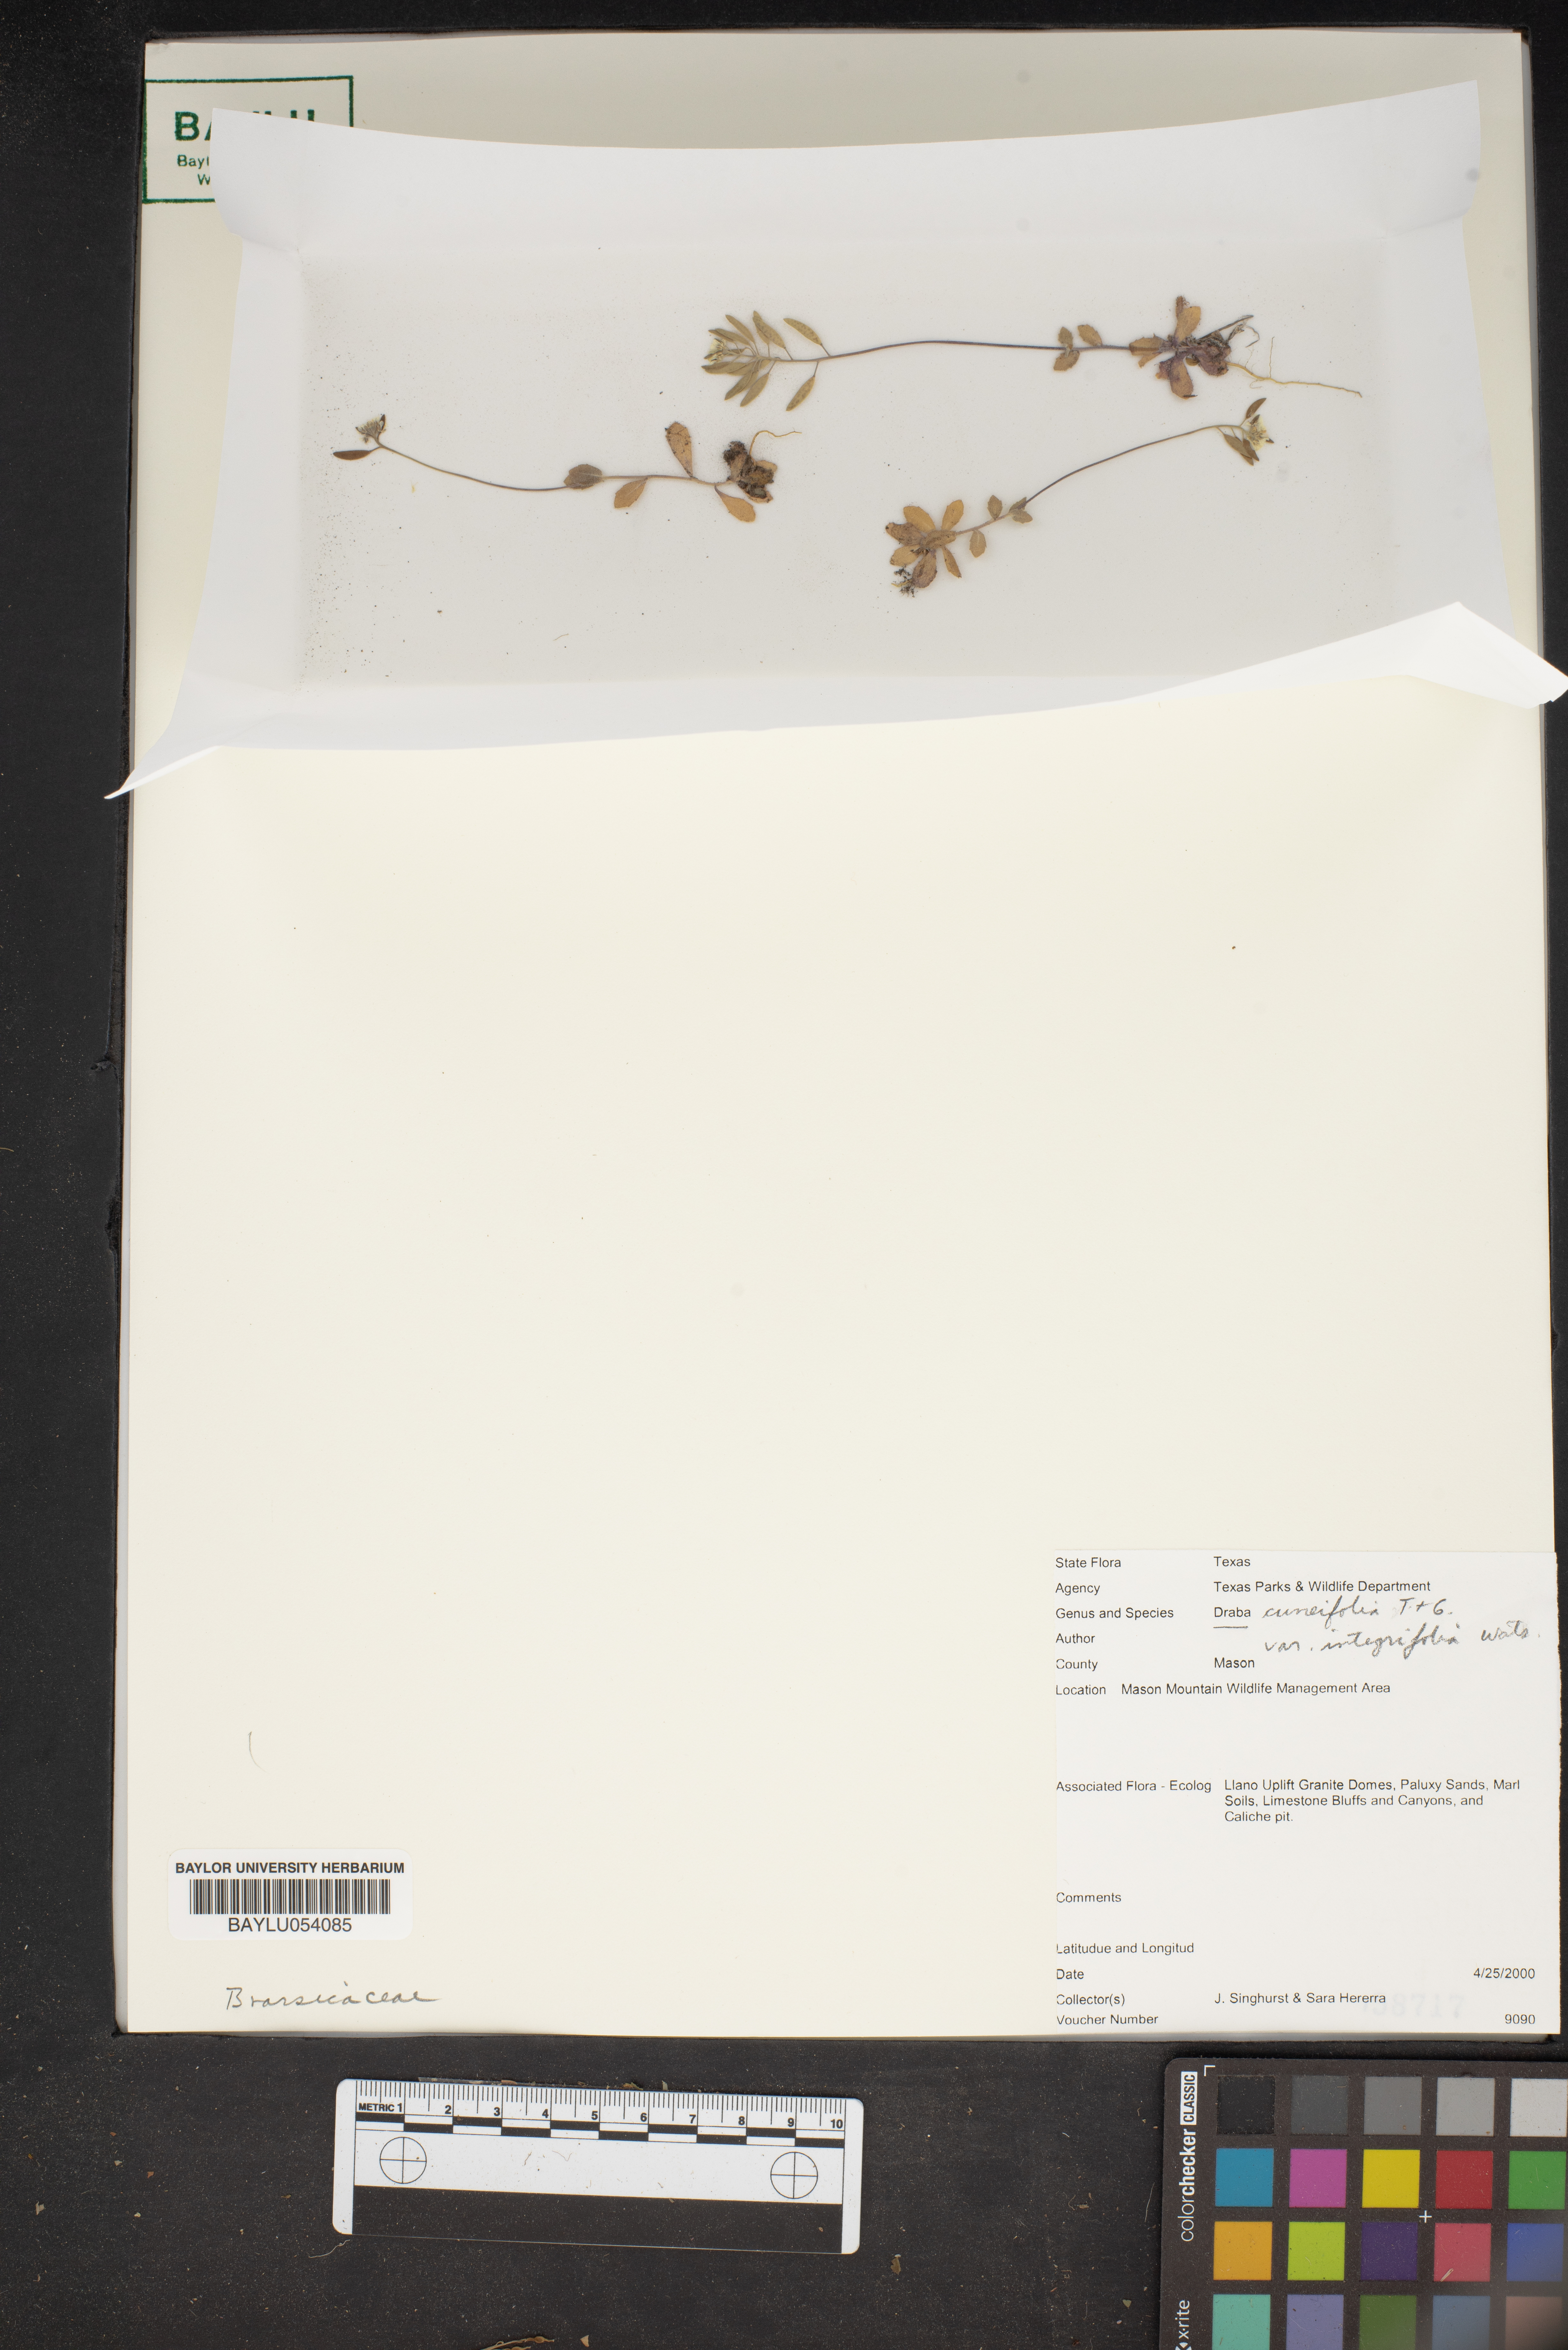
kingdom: Plantae
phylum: Tracheophyta
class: Magnoliopsida
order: Brassicales
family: Brassicaceae
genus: Tomostima
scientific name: Tomostima cuneifolia
